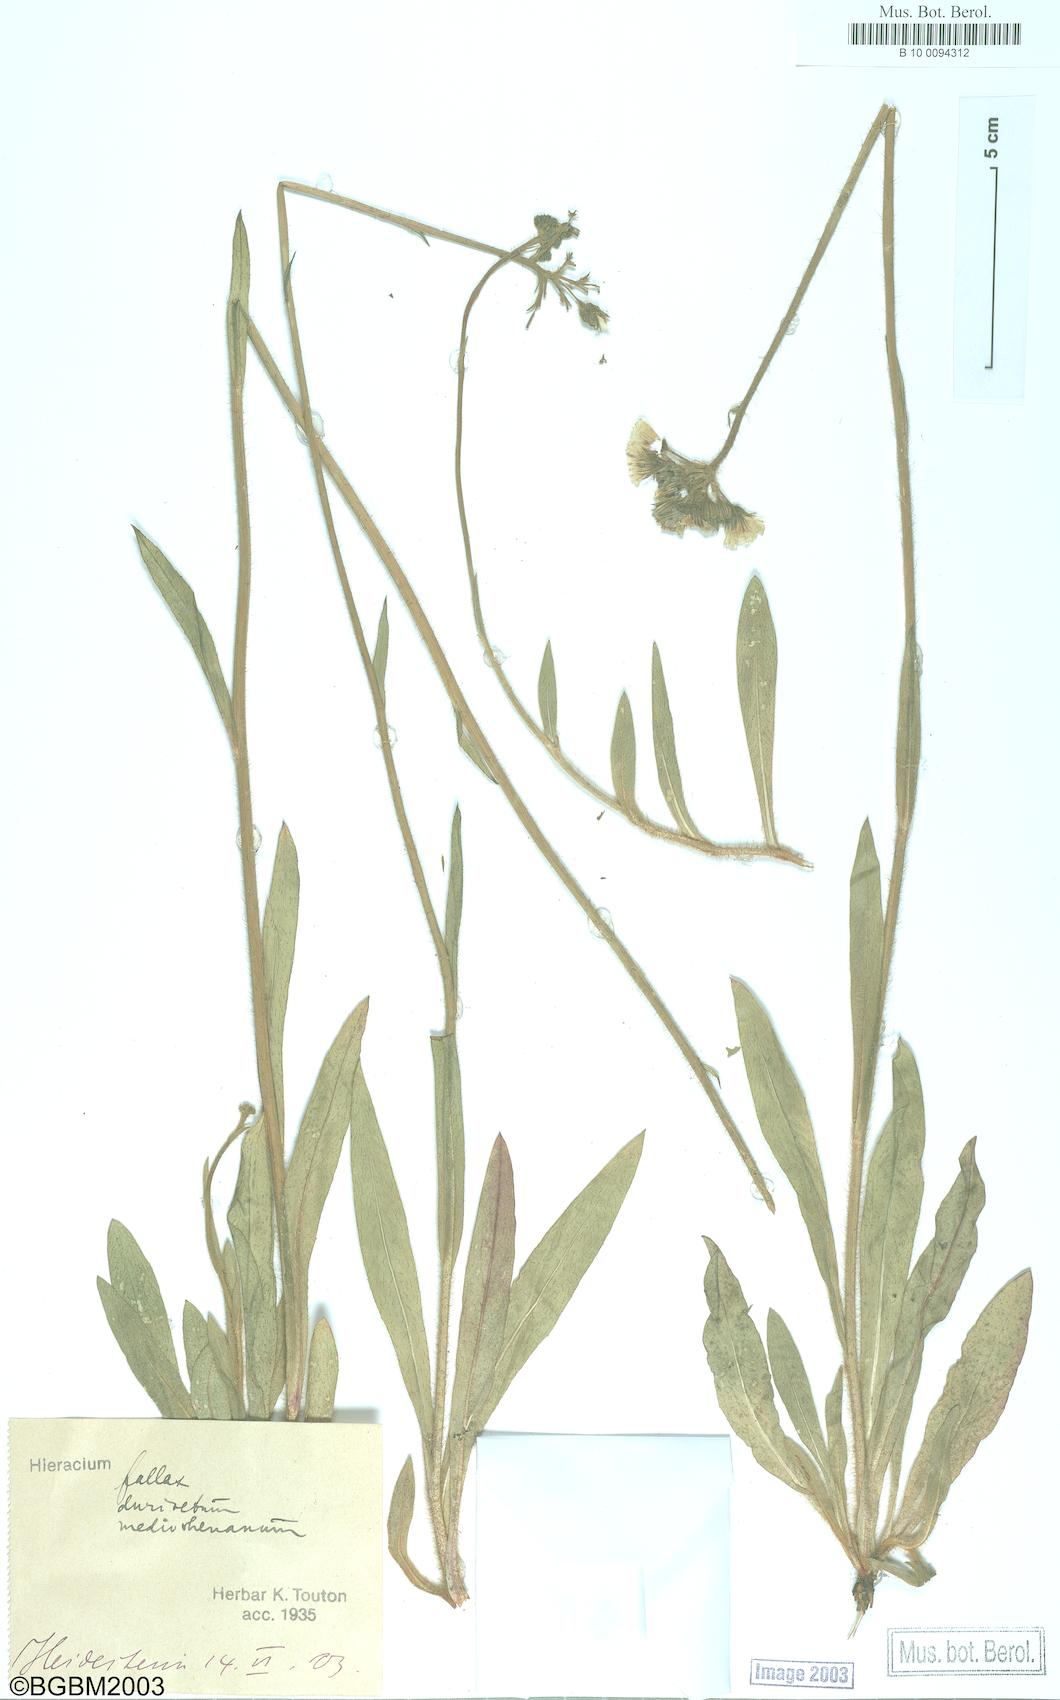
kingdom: Plantae
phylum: Tracheophyta
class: Magnoliopsida
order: Asterales
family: Asteraceae
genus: Hieracium
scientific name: Hieracium fallax
